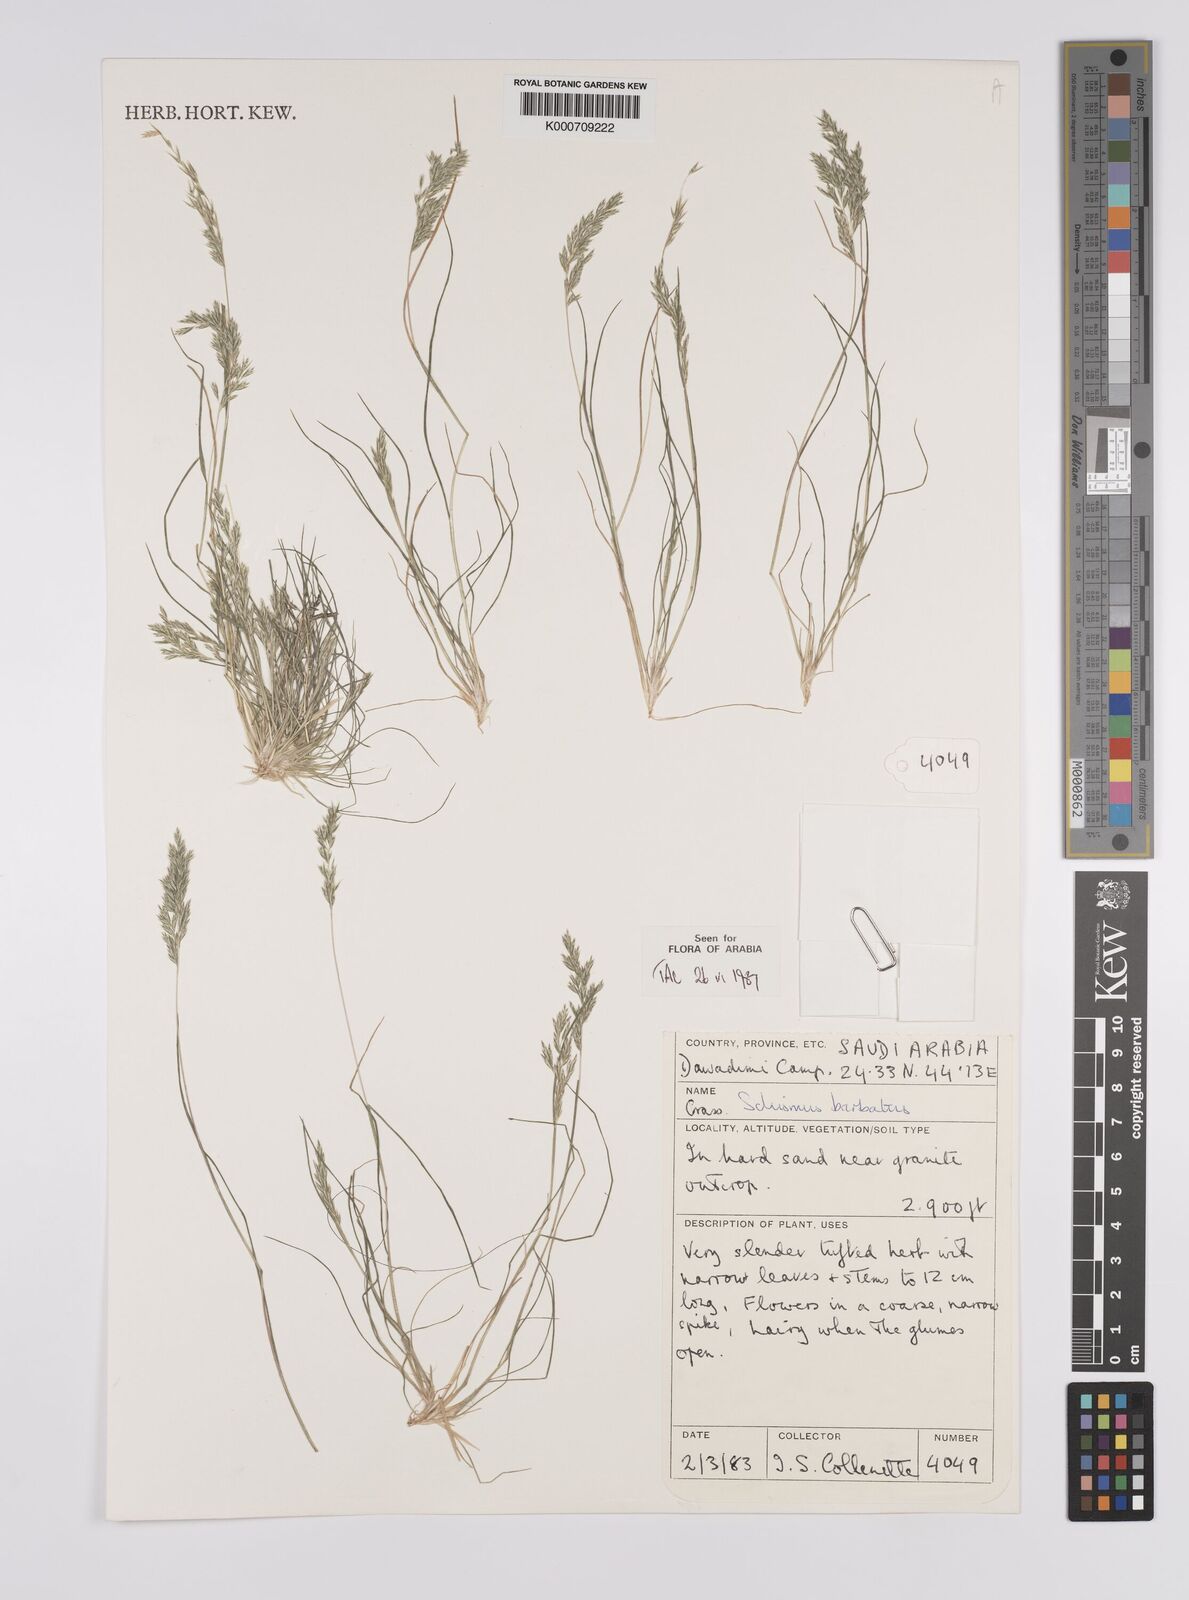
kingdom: Plantae
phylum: Tracheophyta
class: Liliopsida
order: Poales
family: Poaceae
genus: Schismus
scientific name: Schismus barbatus
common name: Kelch-grass
